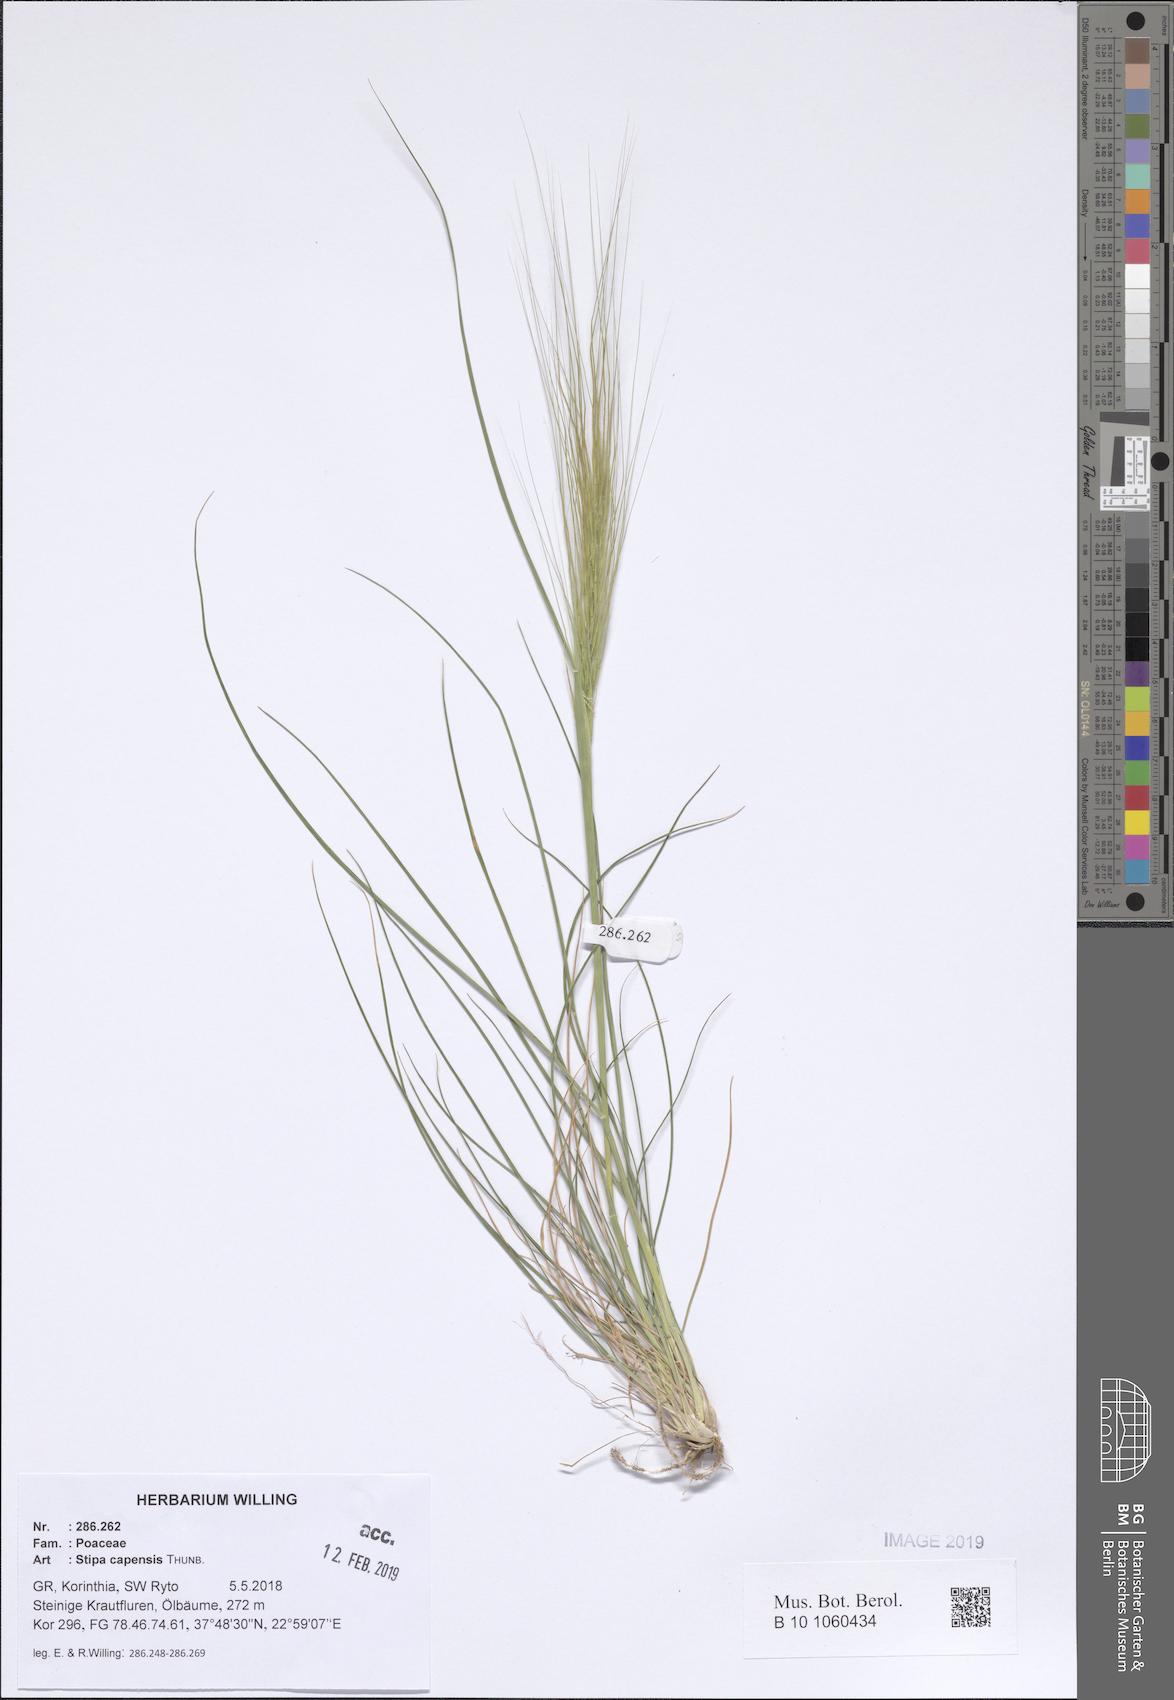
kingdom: Plantae
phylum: Tracheophyta
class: Liliopsida
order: Poales
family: Poaceae
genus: Stipellula
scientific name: Stipellula capensis
